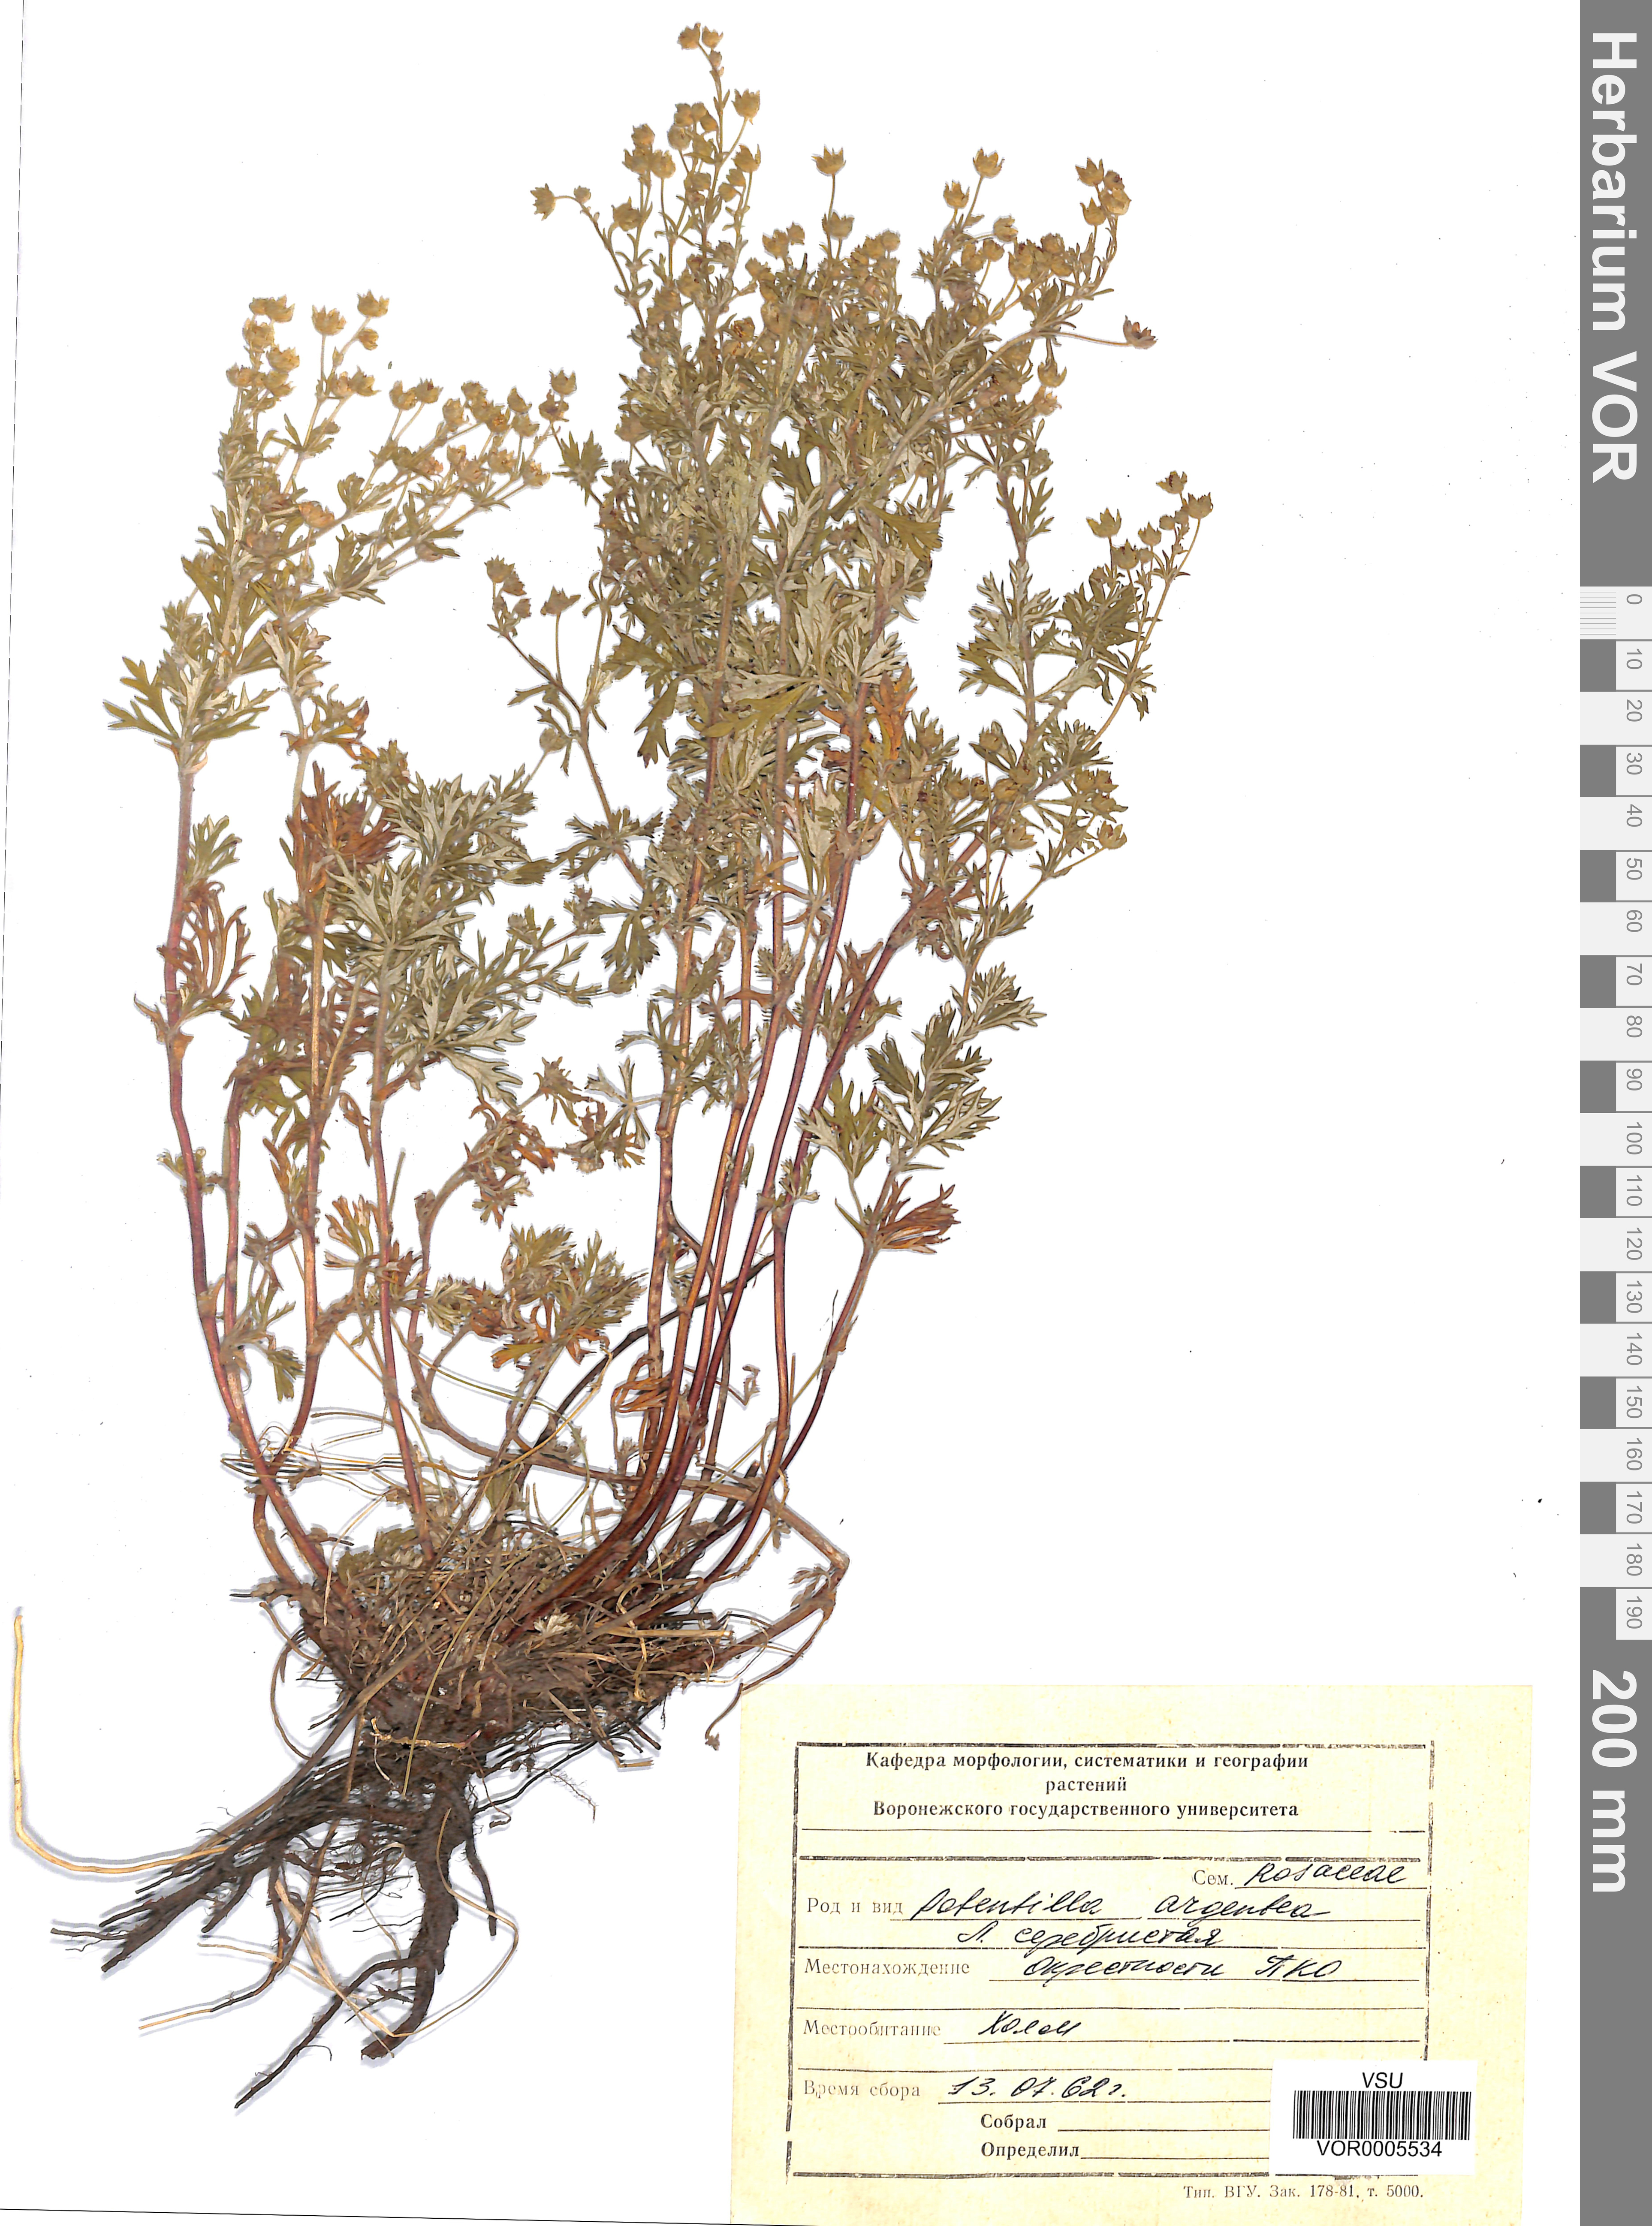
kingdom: Plantae
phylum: Tracheophyta
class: Magnoliopsida
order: Rosales
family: Rosaceae
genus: Potentilla
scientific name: Potentilla argentea
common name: Hoary cinquefoil
